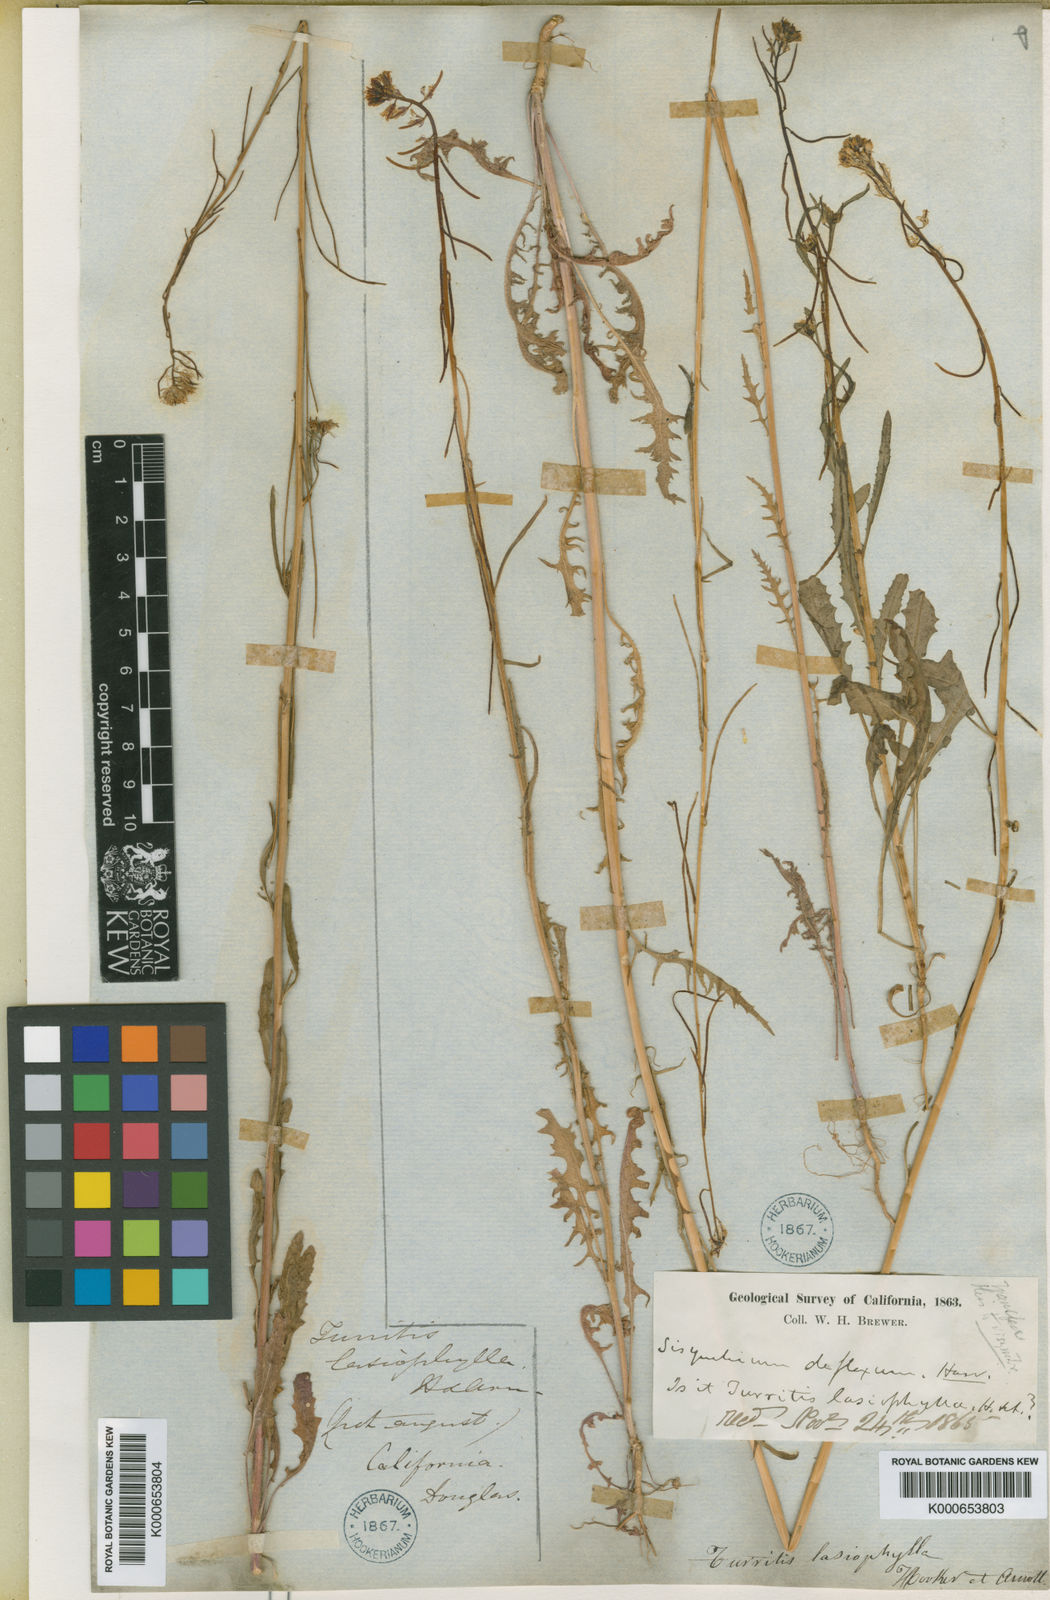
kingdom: Plantae
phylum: Tracheophyta
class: Magnoliopsida
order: Brassicales
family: Brassicaceae
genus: Streptanthus
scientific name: Streptanthus lasiophyllus
